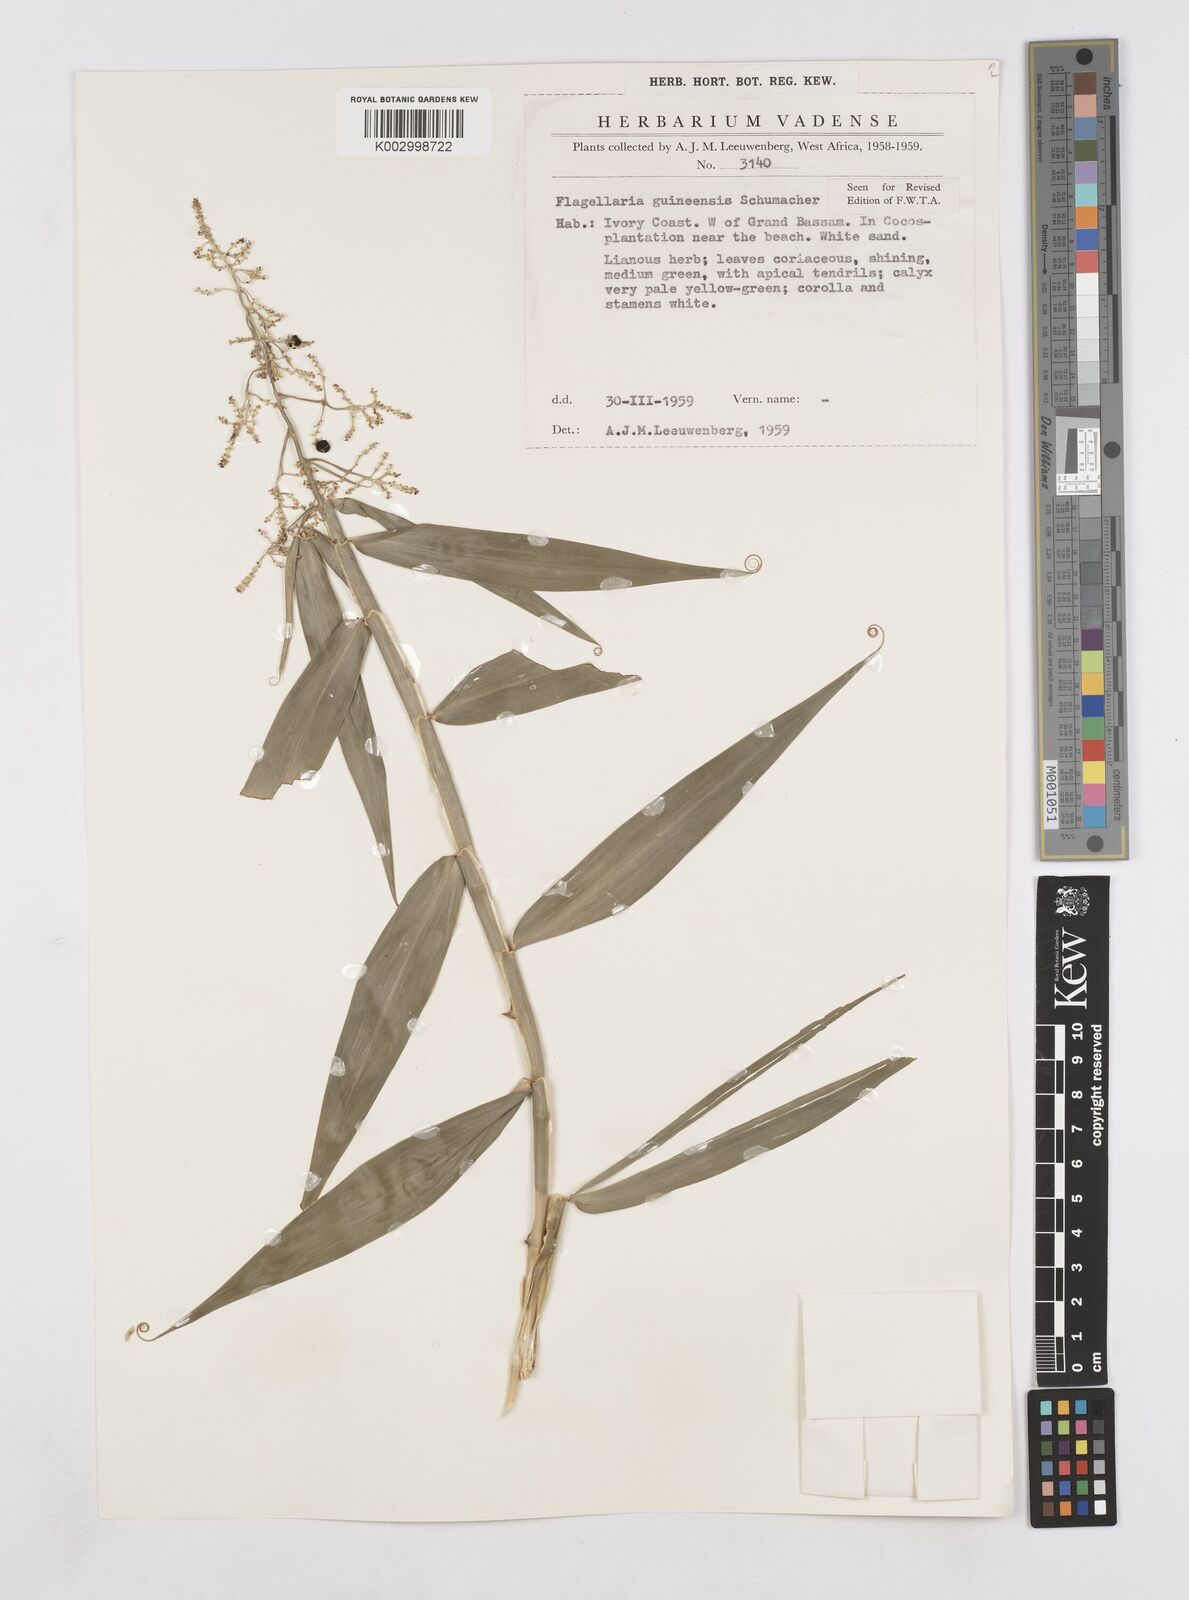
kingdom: Plantae
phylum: Tracheophyta
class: Liliopsida
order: Poales
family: Flagellariaceae
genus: Flagellaria
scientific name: Flagellaria guineensis
